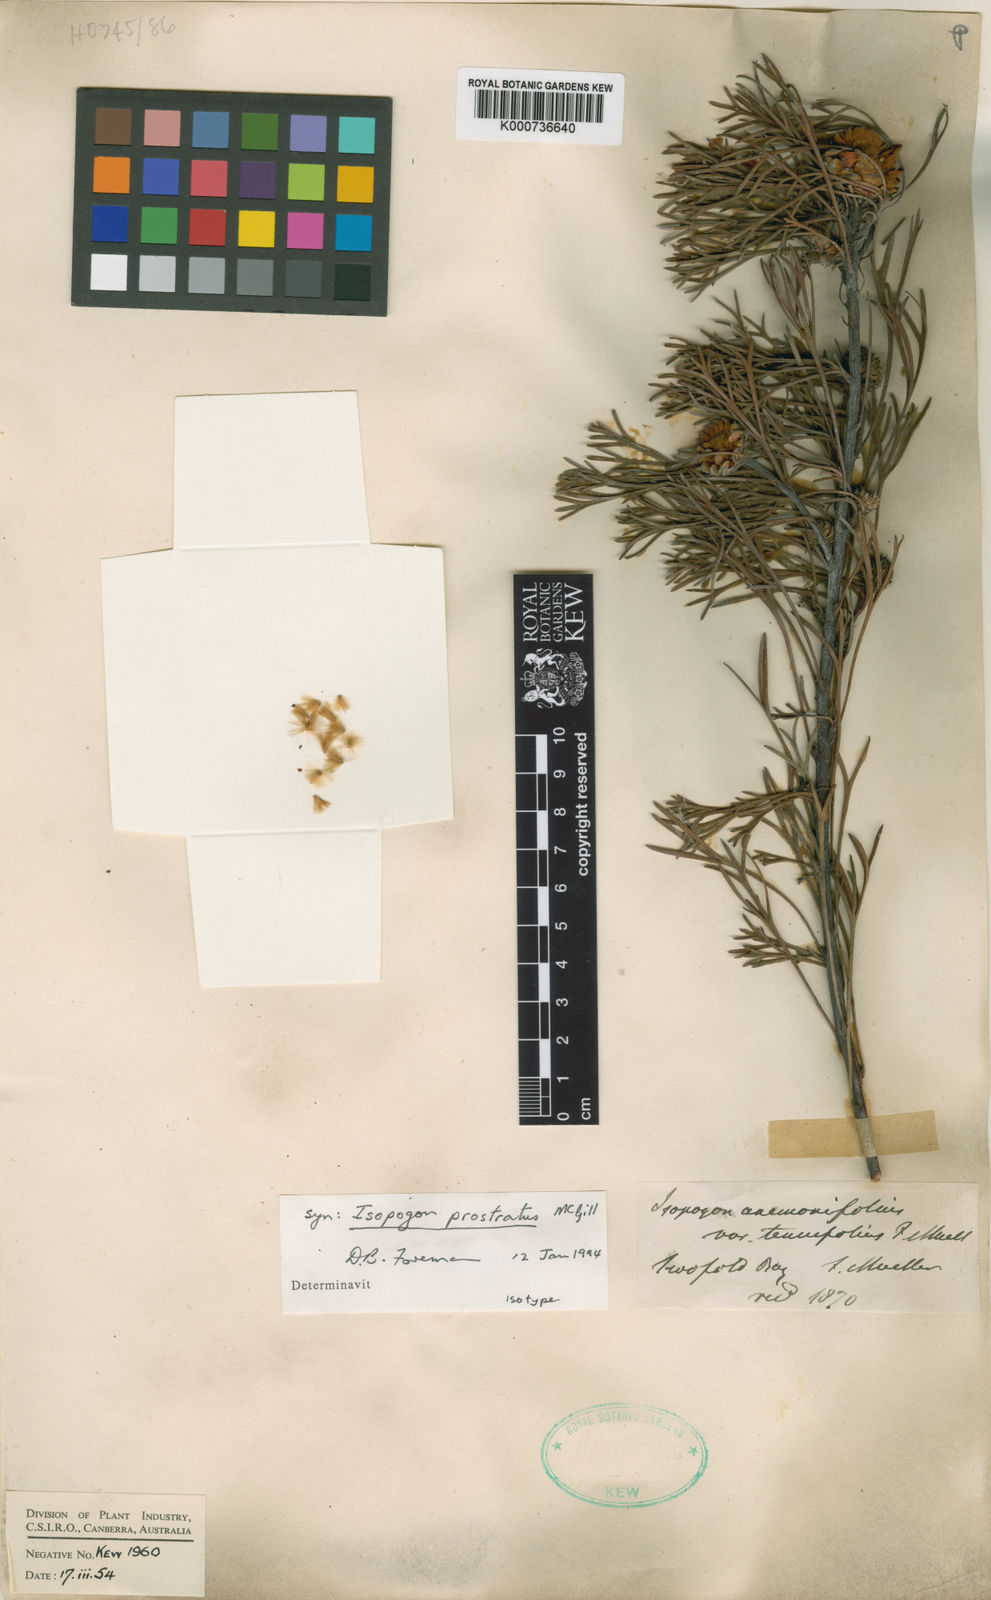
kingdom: Plantae
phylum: Tracheophyta
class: Magnoliopsida
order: Proteales
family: Proteaceae
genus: Isopogon
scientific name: Isopogon anemonifolius
